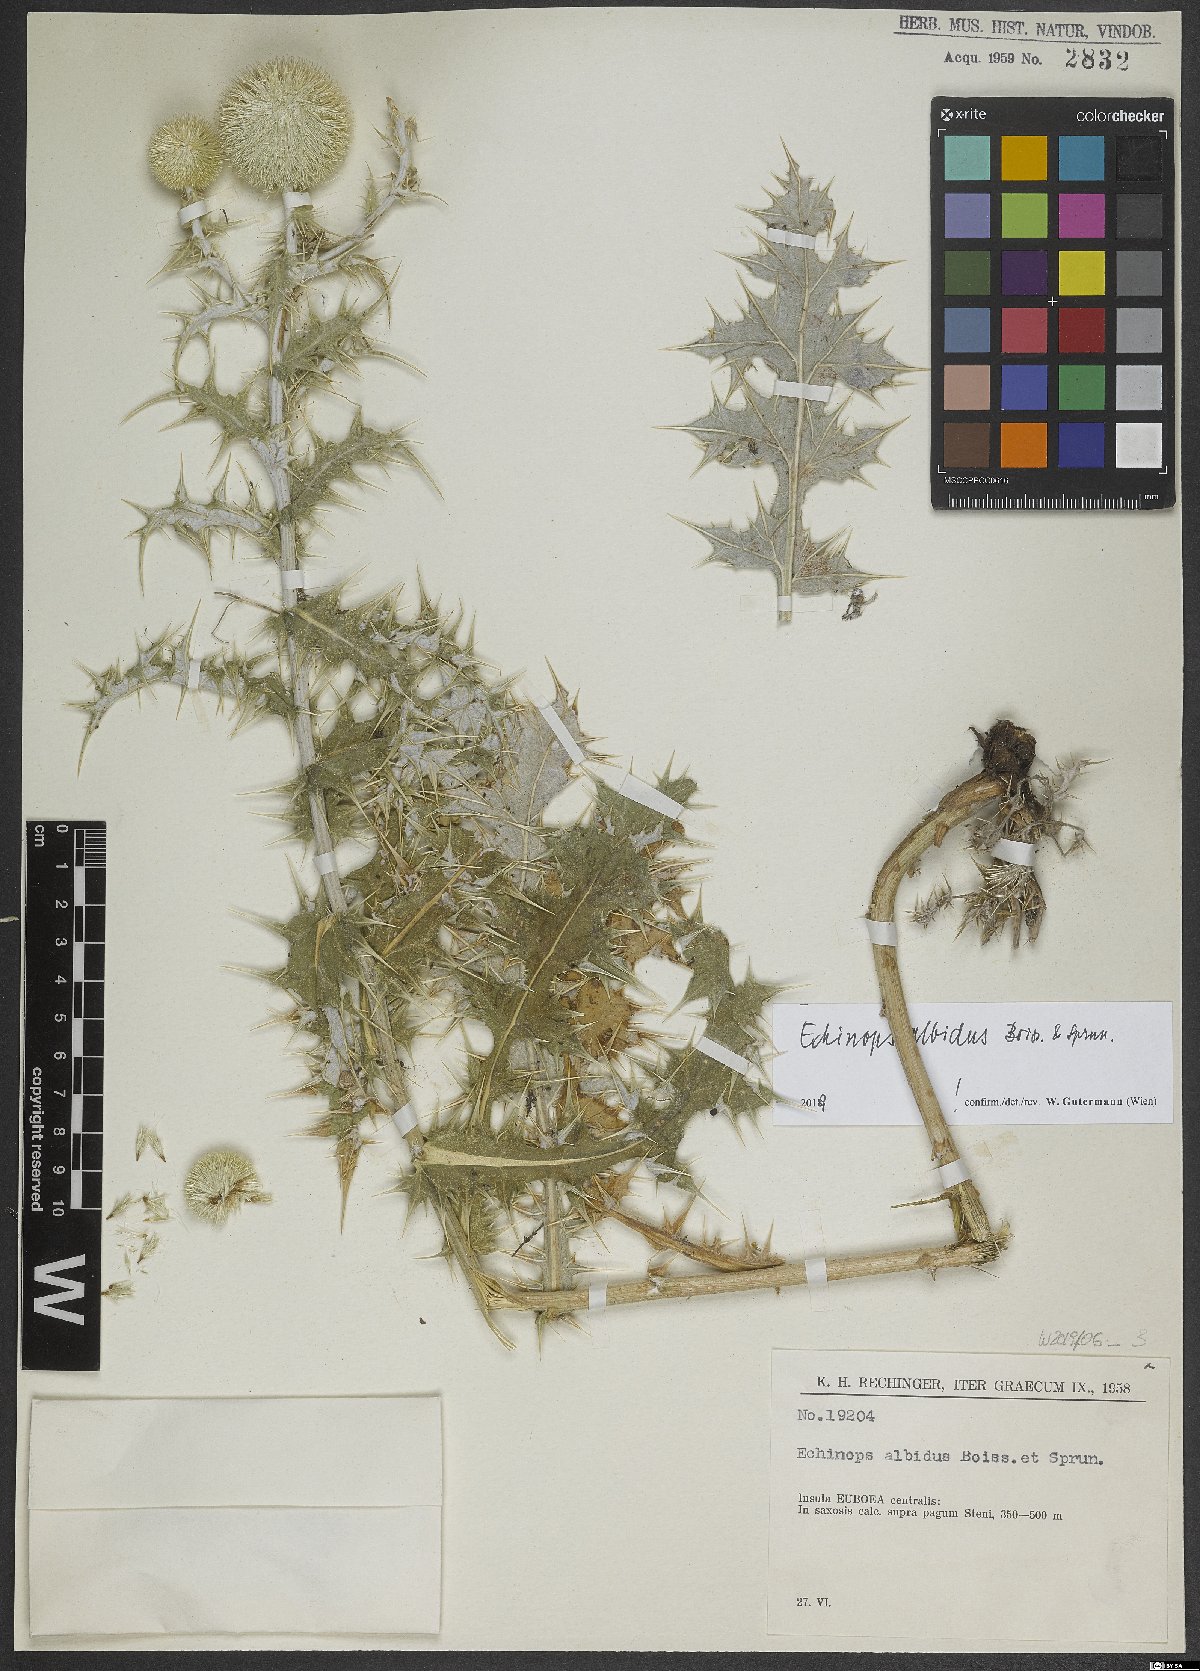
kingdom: Plantae
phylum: Tracheophyta
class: Magnoliopsida
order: Asterales
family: Asteraceae
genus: Echinops
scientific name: Echinops sphaerocephalus
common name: Glandular globe-thistle
